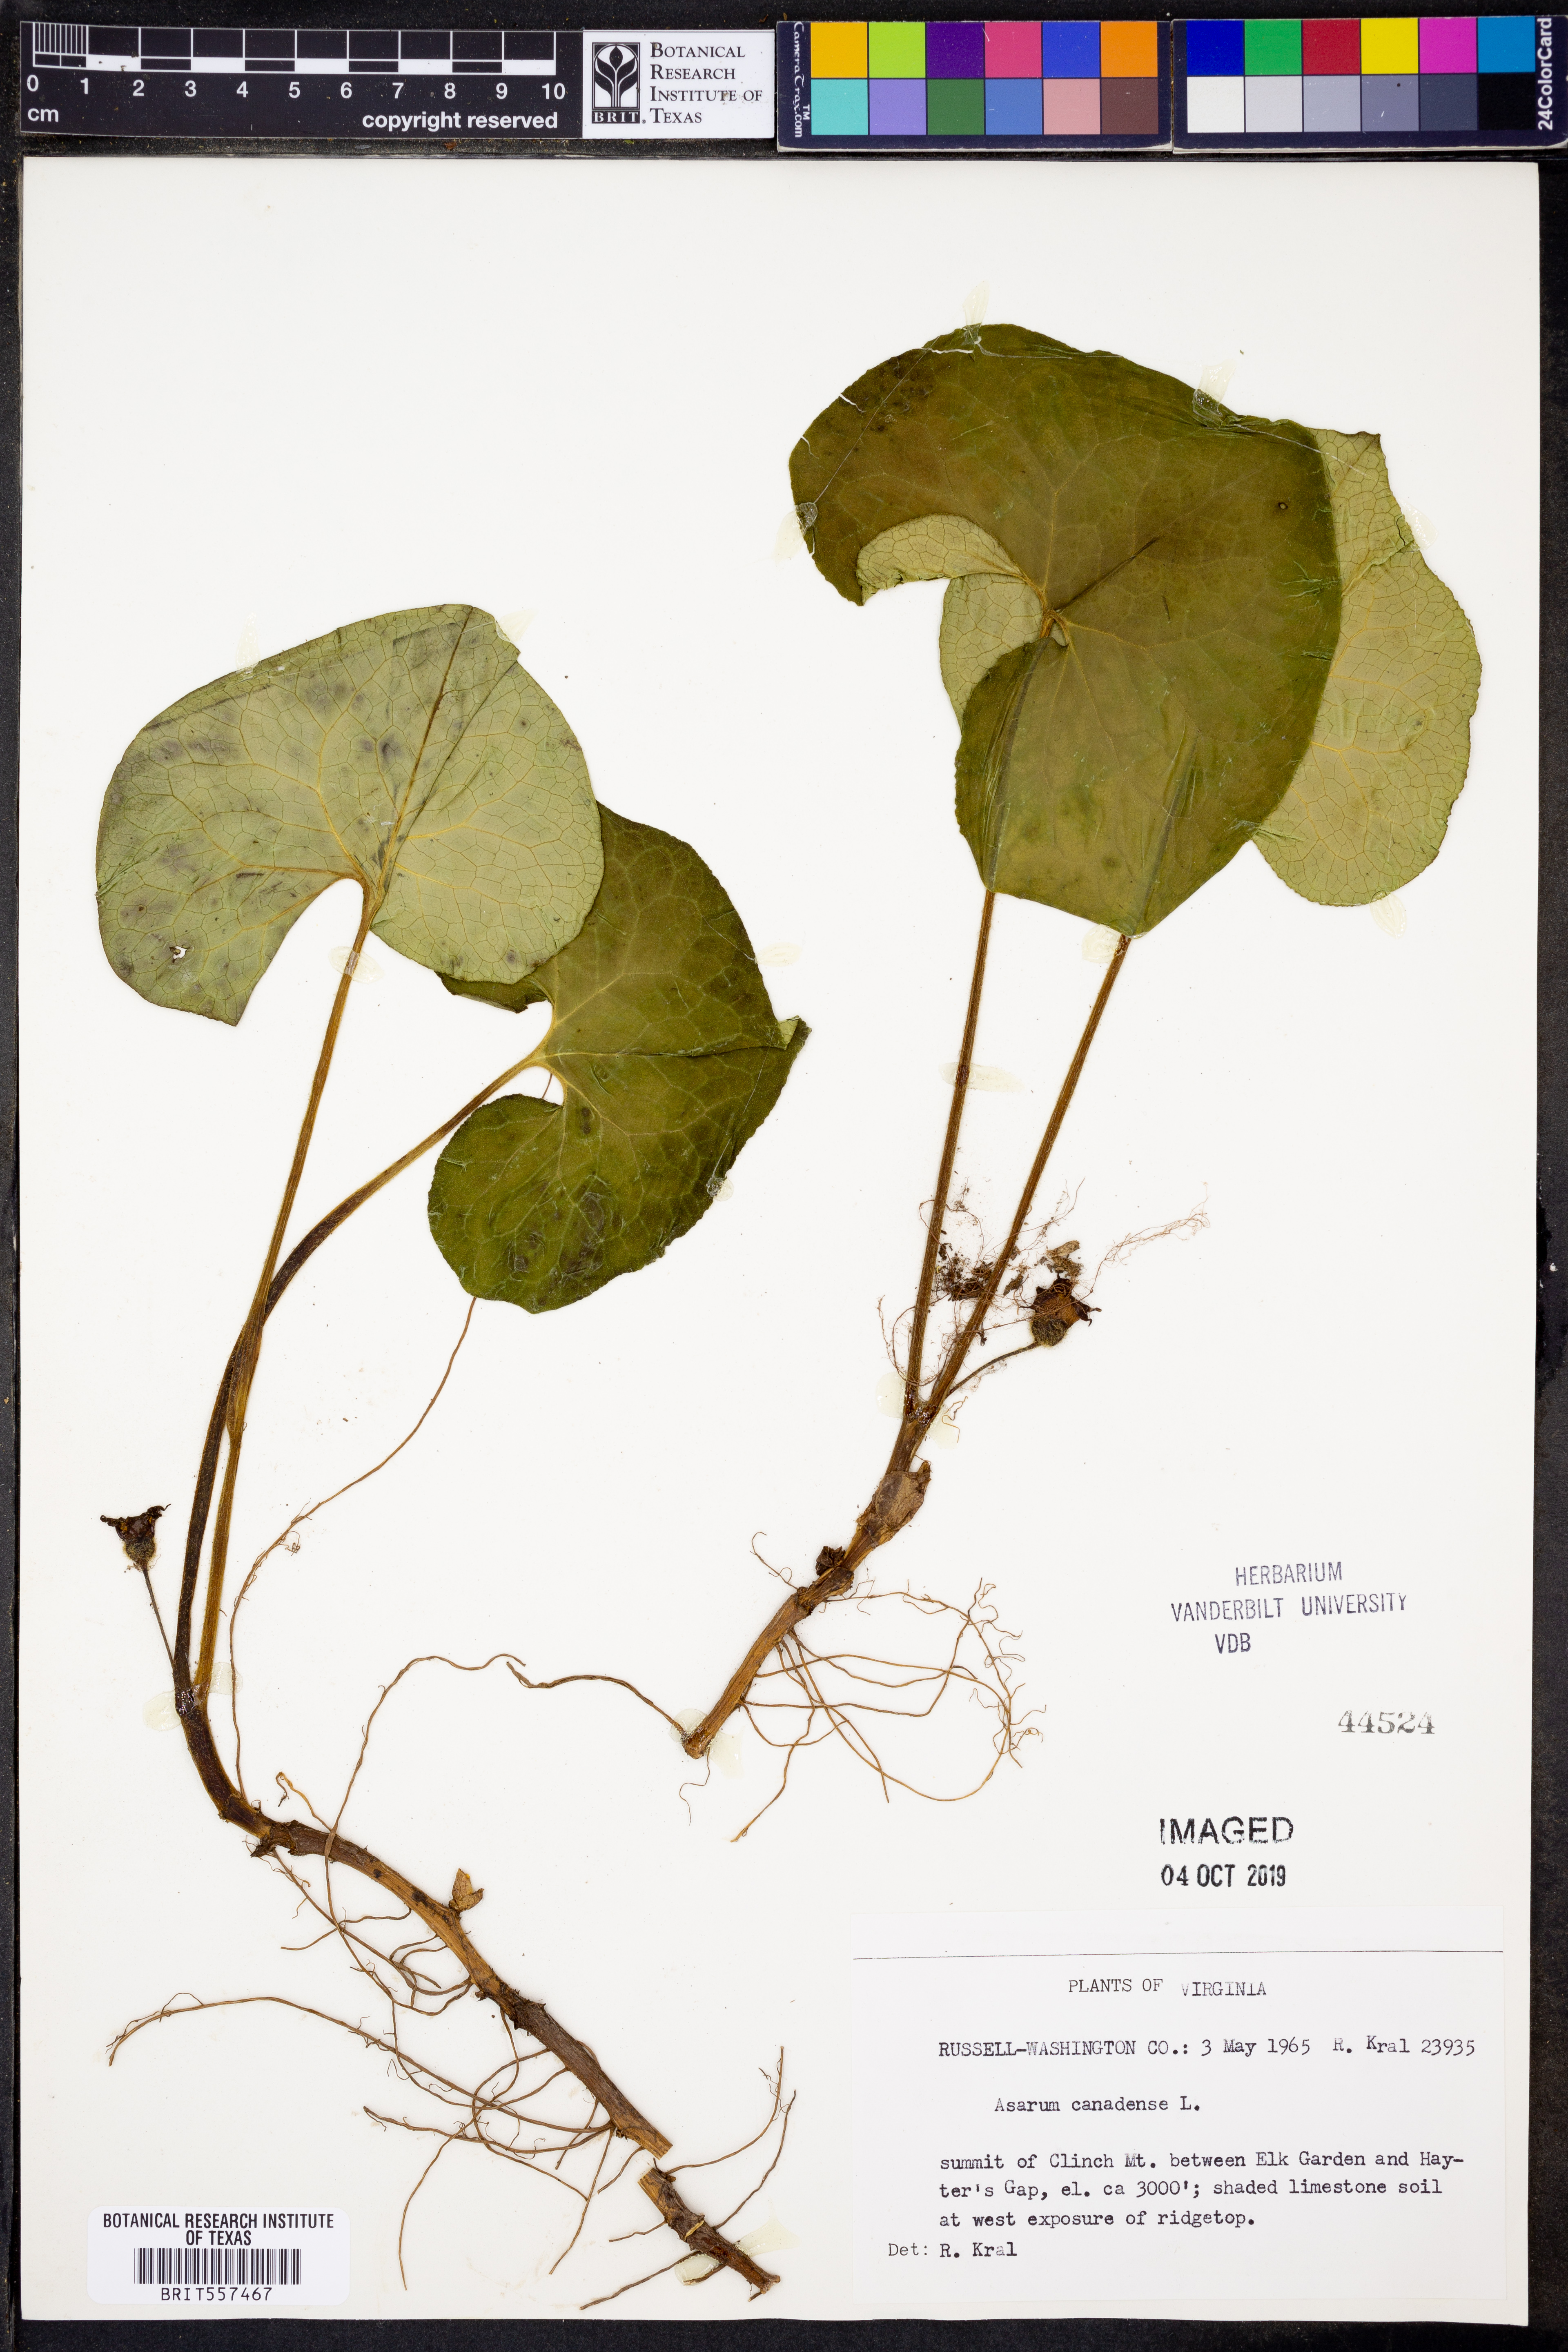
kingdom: Plantae
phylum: Tracheophyta
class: Magnoliopsida
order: Piperales
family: Aristolochiaceae
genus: Asarum
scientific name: Asarum canadense
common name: Wild ginger
